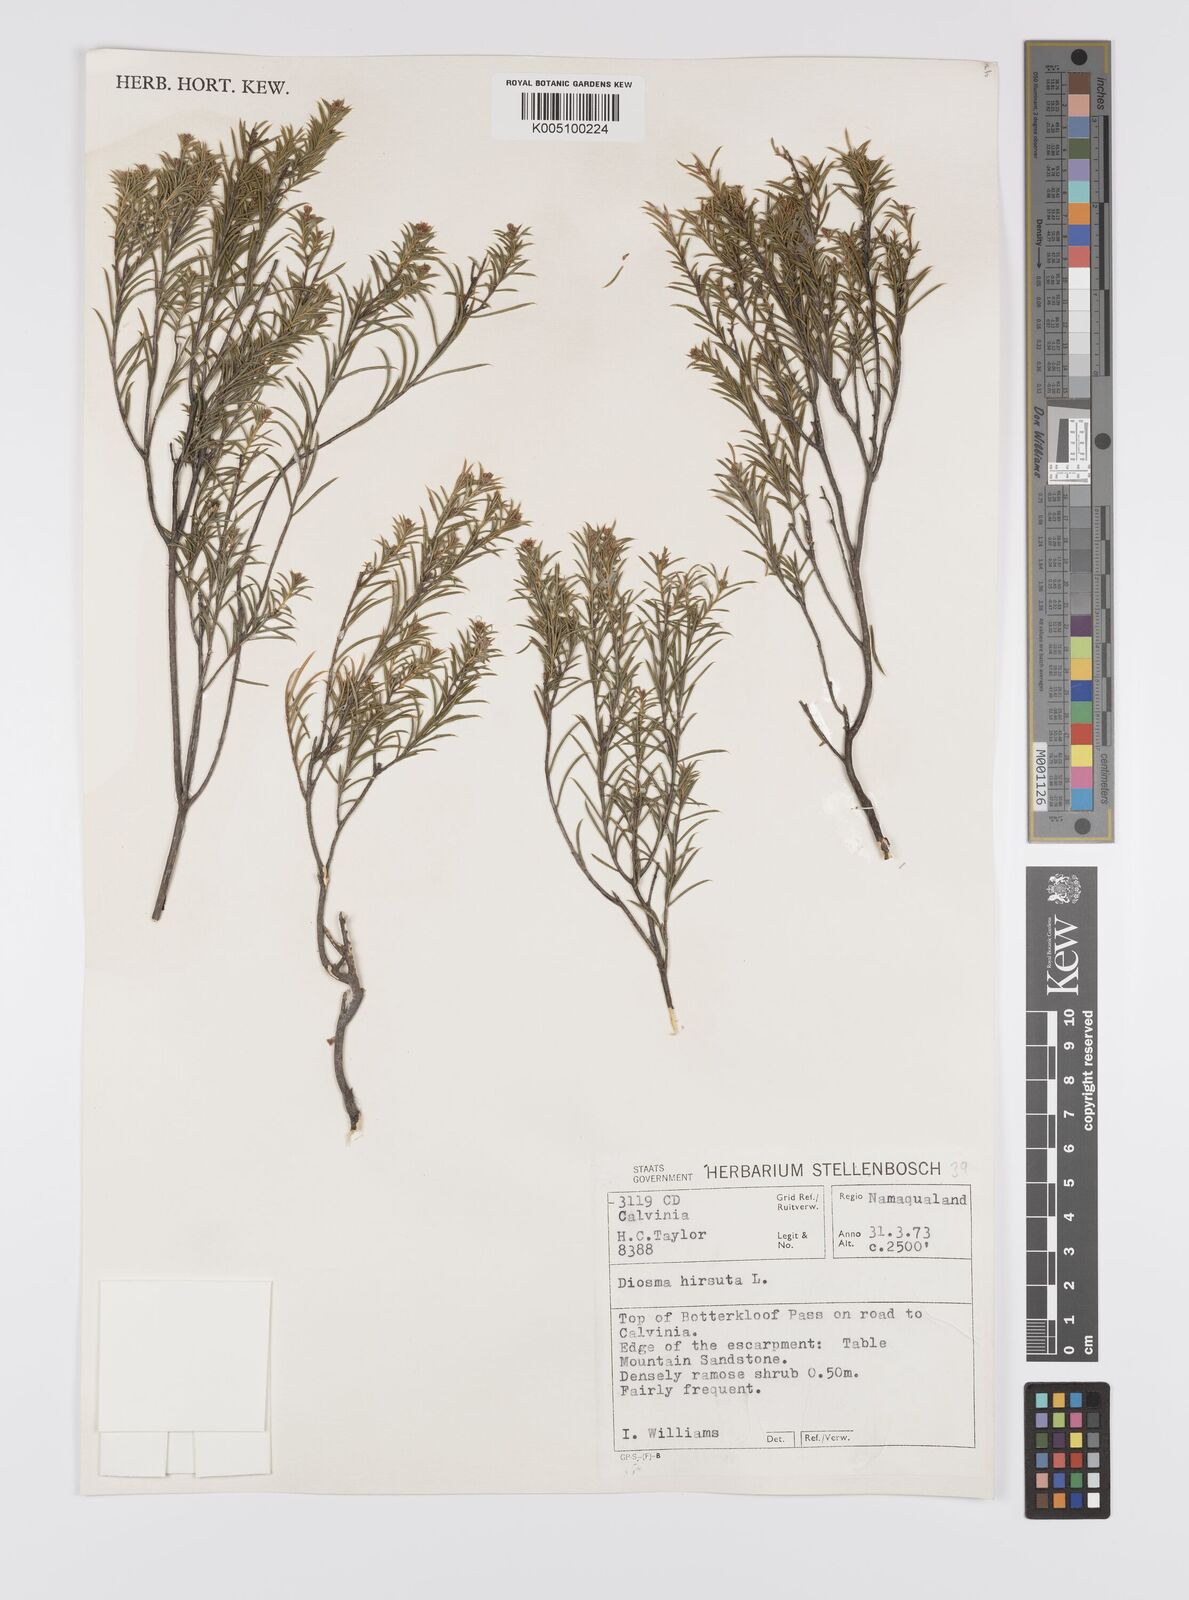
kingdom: Plantae
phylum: Tracheophyta
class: Magnoliopsida
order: Sapindales
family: Rutaceae
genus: Diosma
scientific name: Diosma hirsuta
